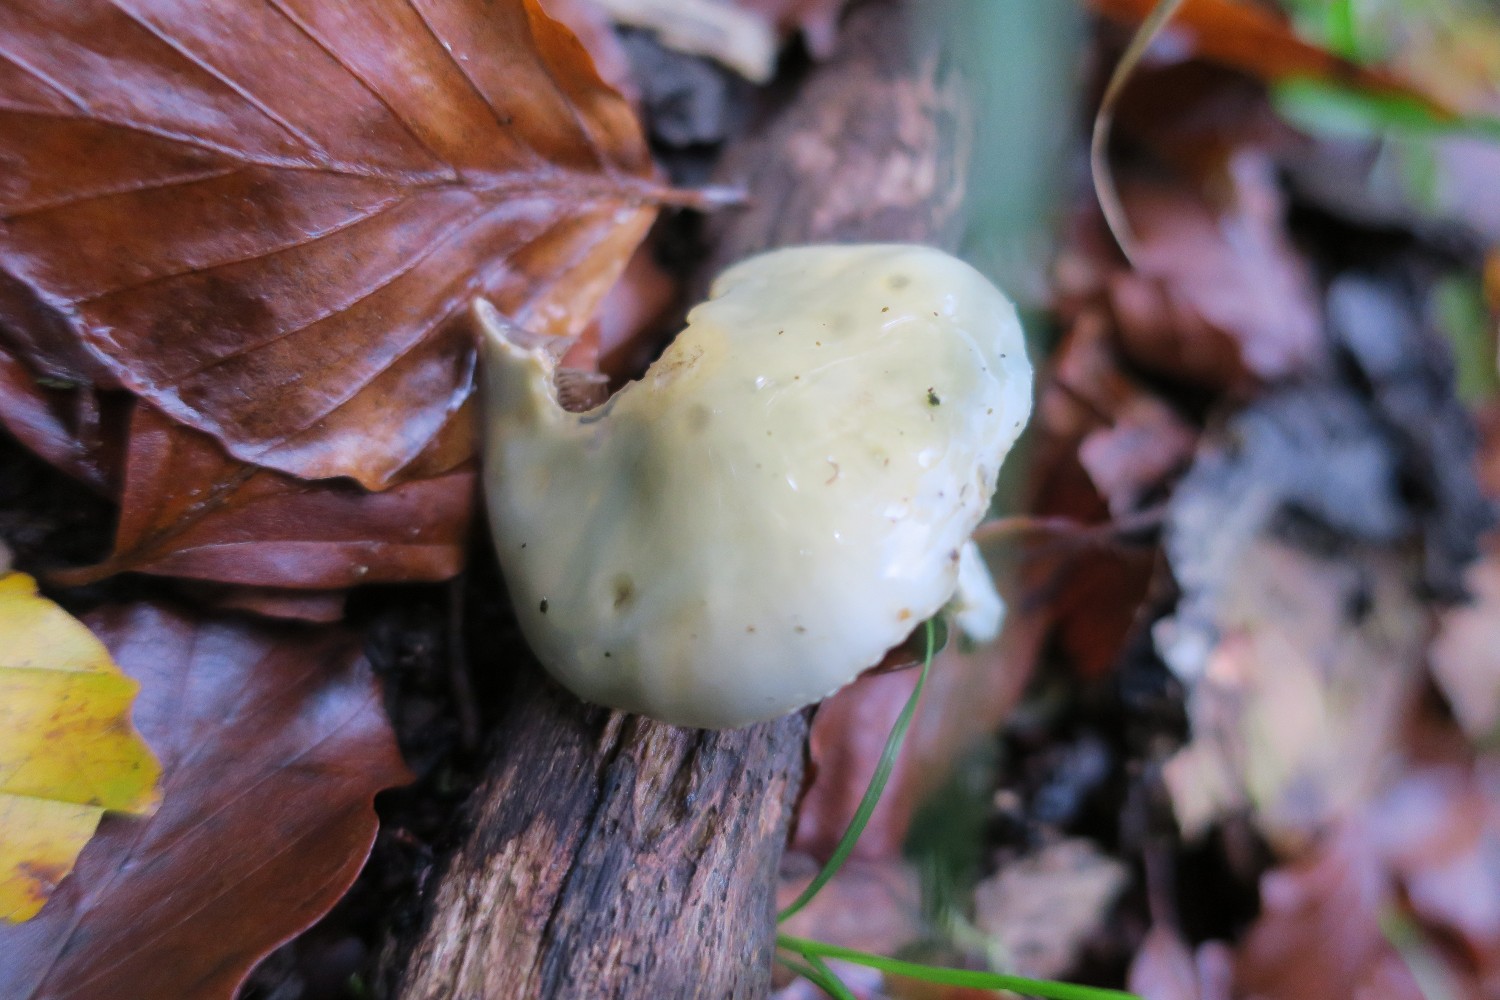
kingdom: Fungi
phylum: Basidiomycota
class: Agaricomycetes
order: Agaricales
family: Strophariaceae
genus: Stropharia
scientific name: Stropharia aeruginosa
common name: spanskgrøn bredblad
